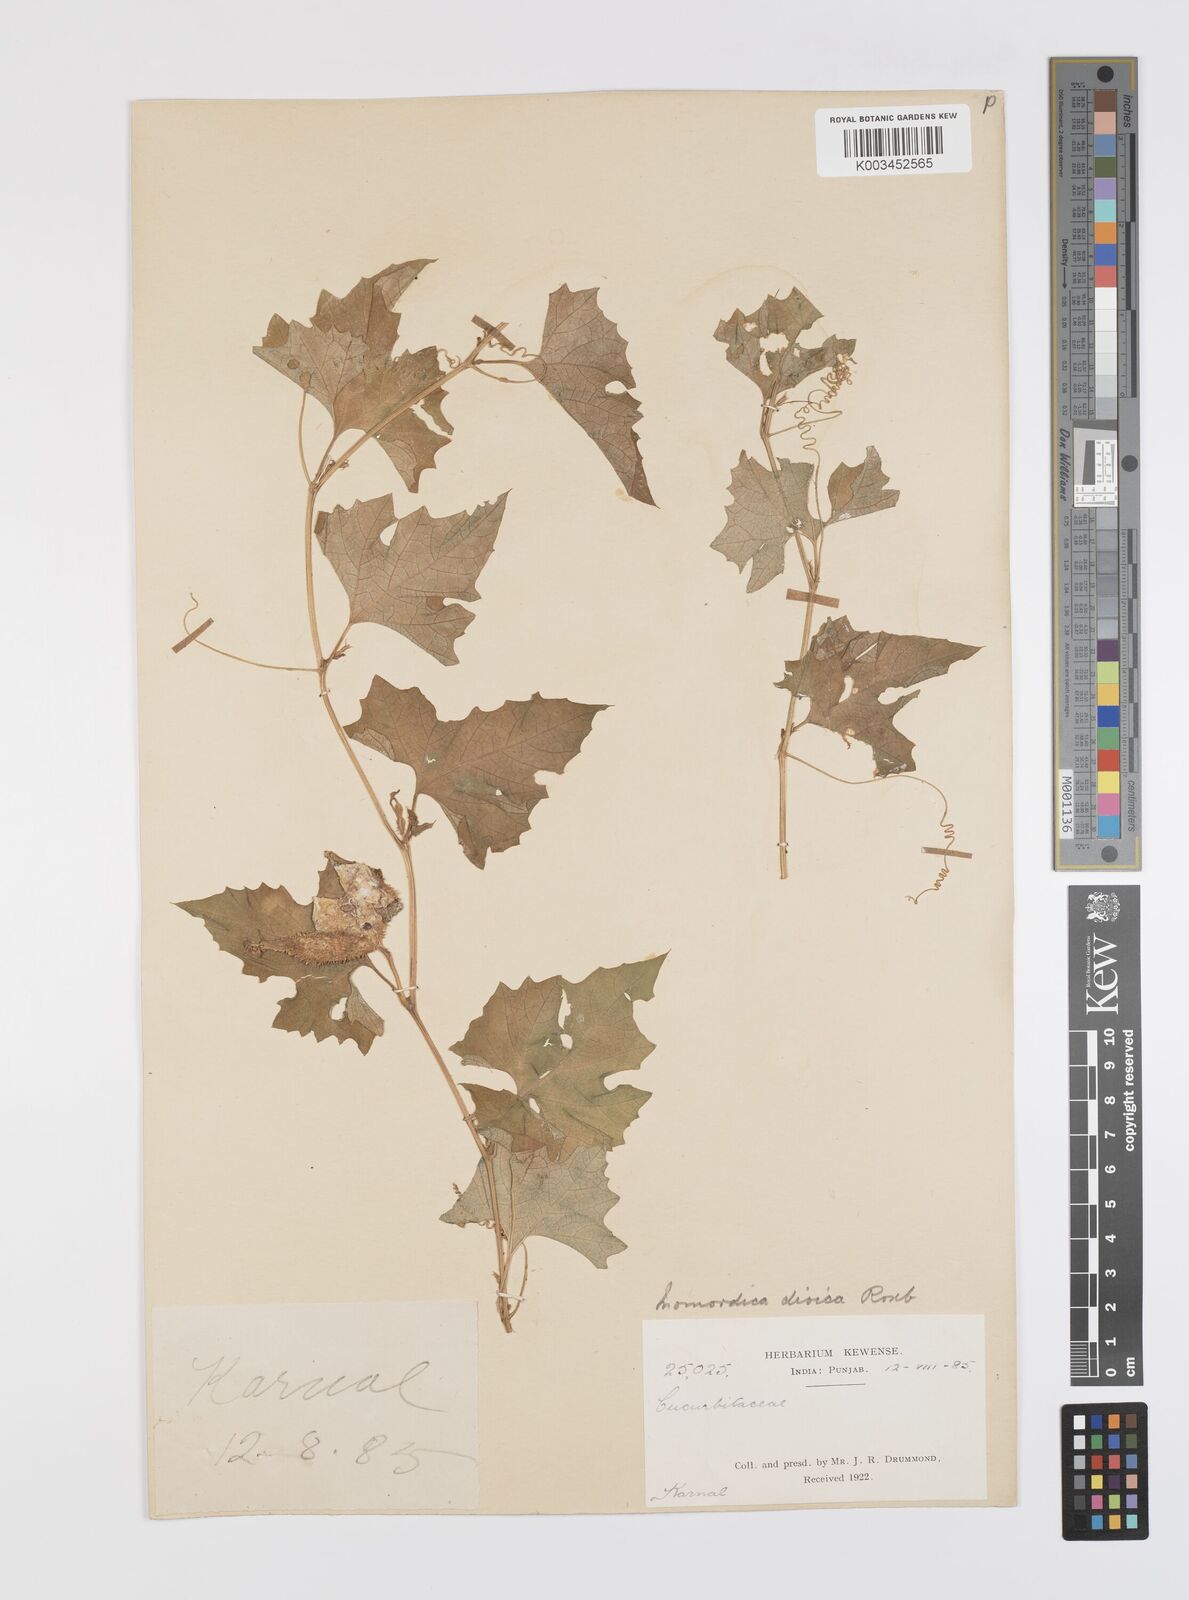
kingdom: Plantae
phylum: Tracheophyta
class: Magnoliopsida
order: Cucurbitales
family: Cucurbitaceae
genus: Momordica
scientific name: Momordica dioica
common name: Spine gourd
